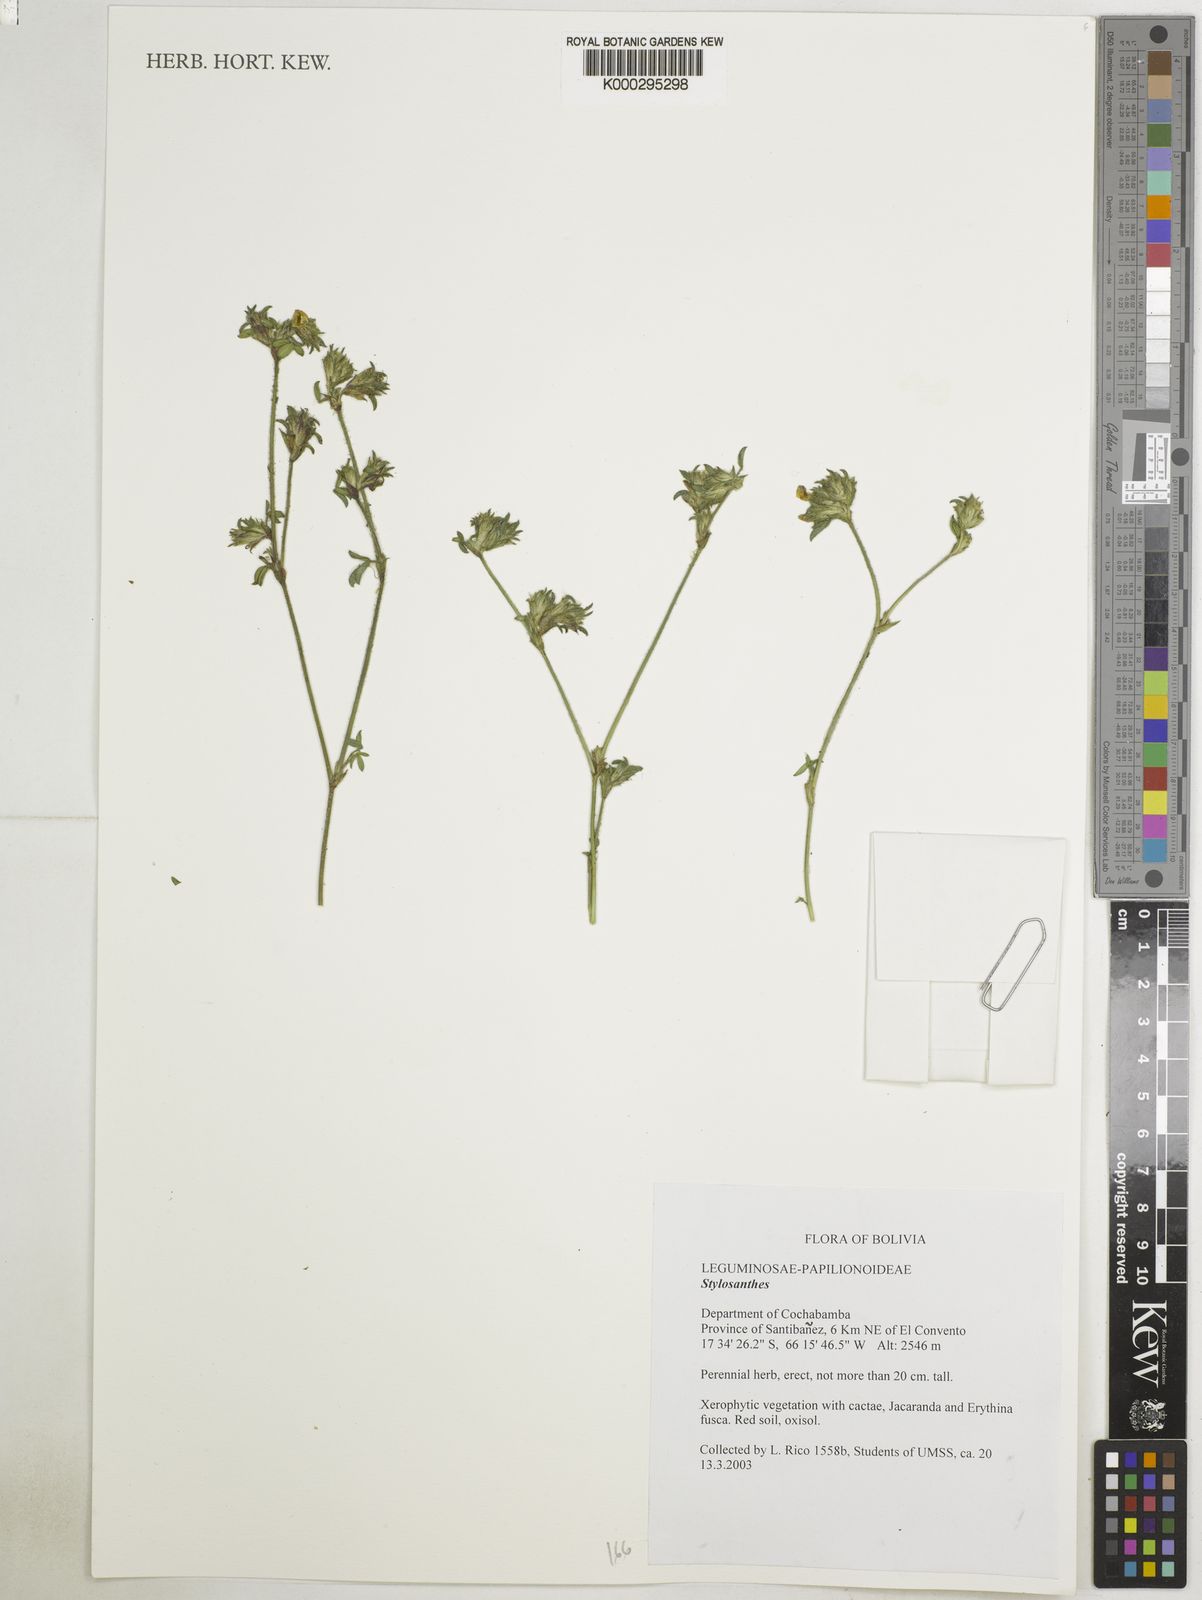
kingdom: Plantae
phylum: Tracheophyta
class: Magnoliopsida
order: Fabales
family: Fabaceae
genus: Stylosanthes
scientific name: Stylosanthes viscosa
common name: Viscid pencil-flower
